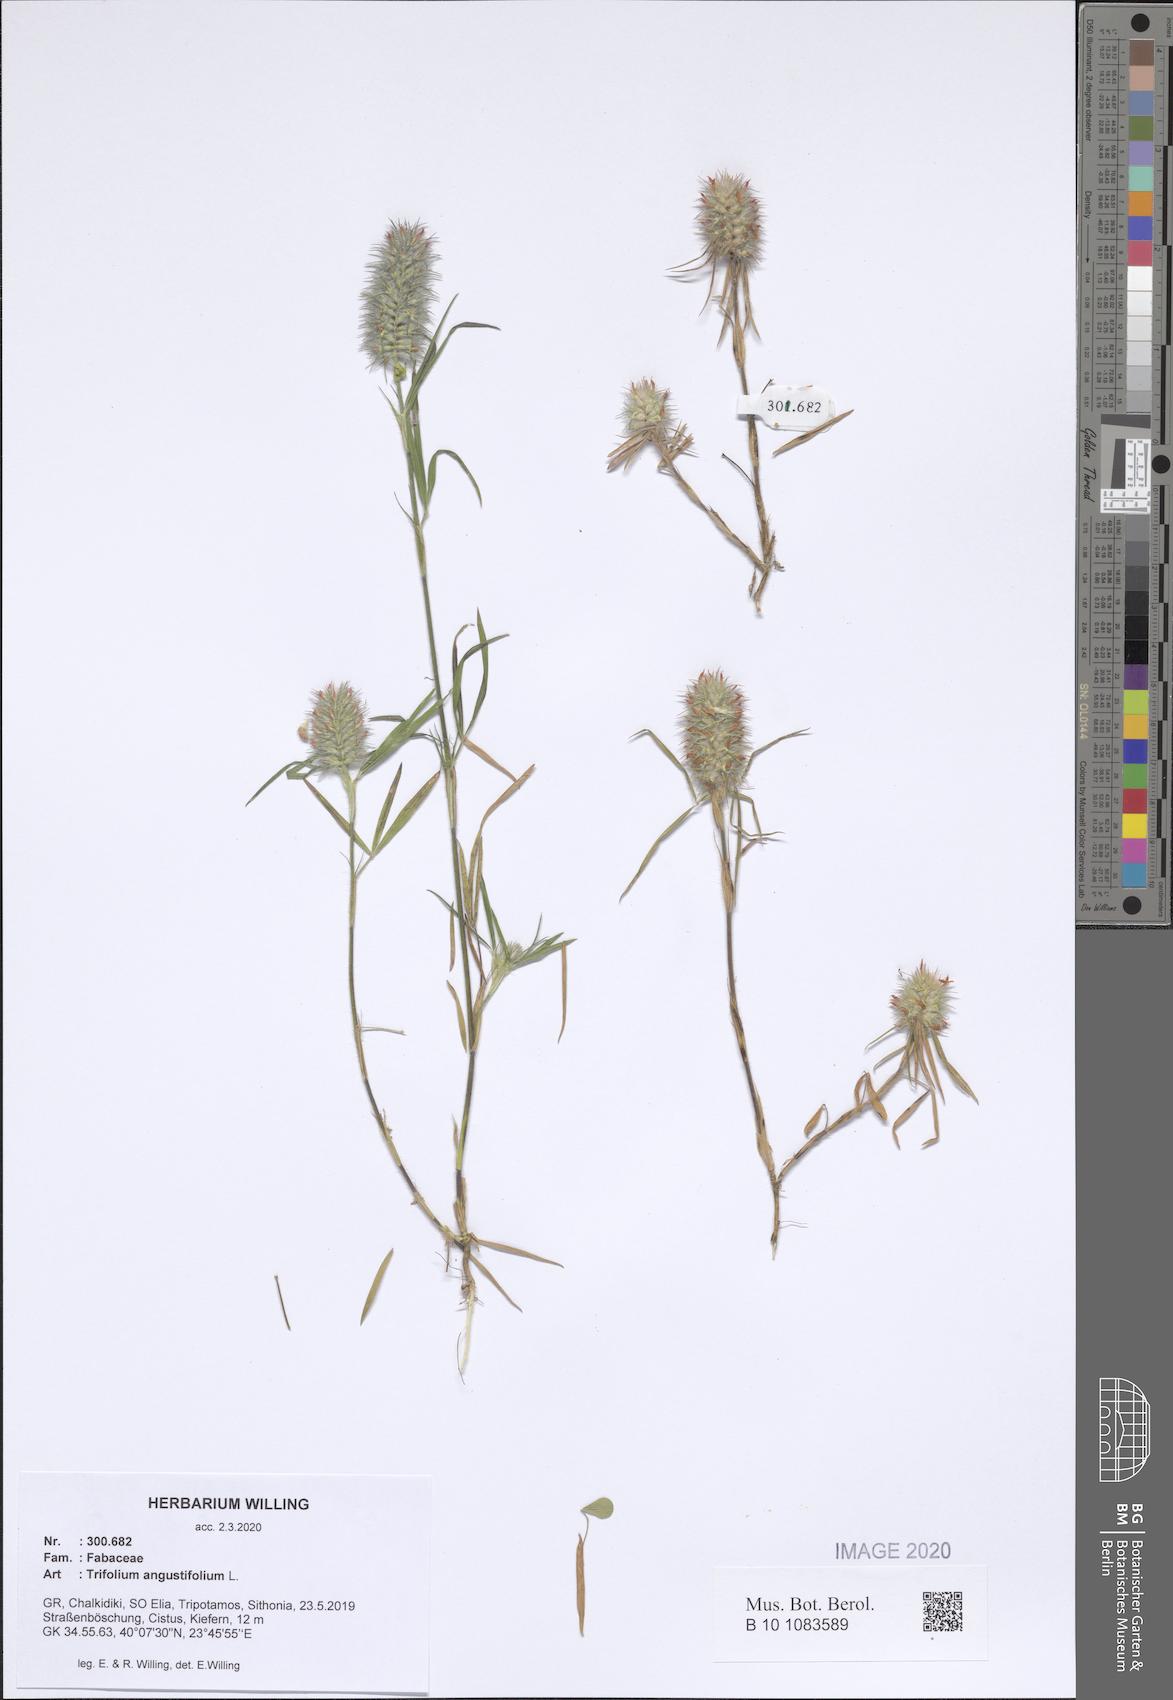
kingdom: Plantae
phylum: Tracheophyta
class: Magnoliopsida
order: Fabales
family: Fabaceae
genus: Trifolium
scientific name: Trifolium angustifolium
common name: Narrow clover
